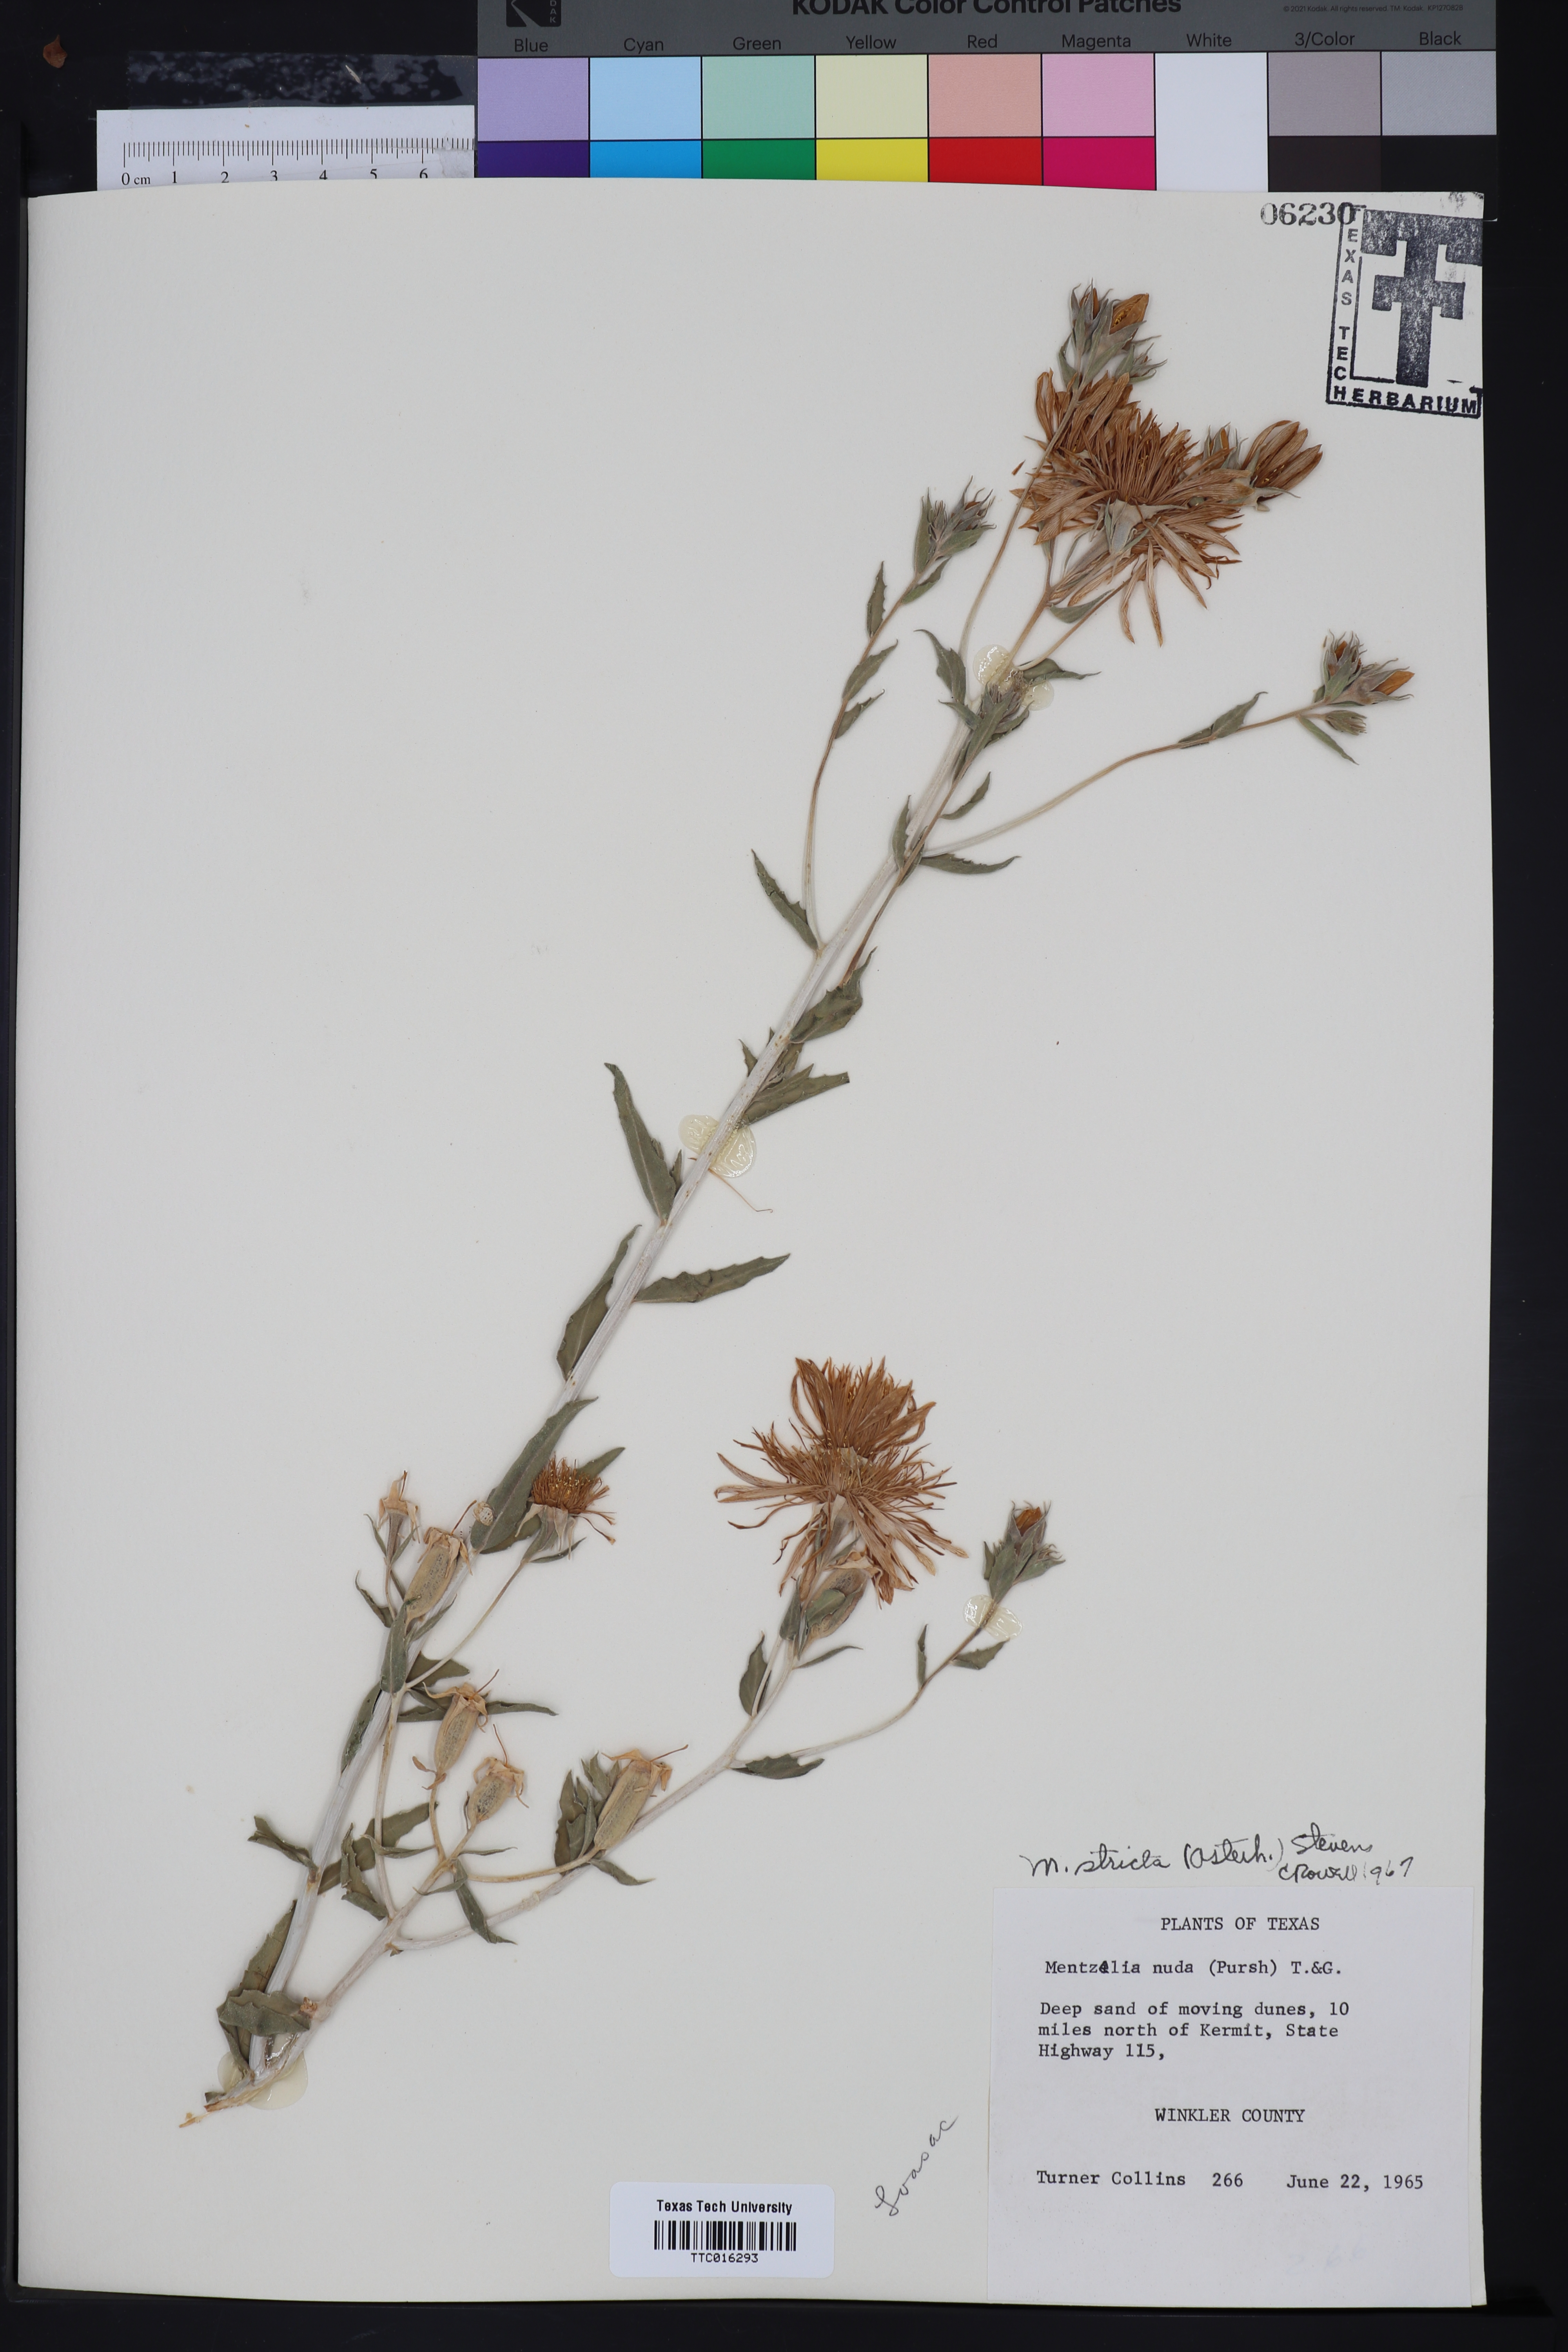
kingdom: Plantae
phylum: Tracheophyta
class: Magnoliopsida
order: Cornales
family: Loasaceae
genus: Mentzelia
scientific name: Mentzelia nuda
